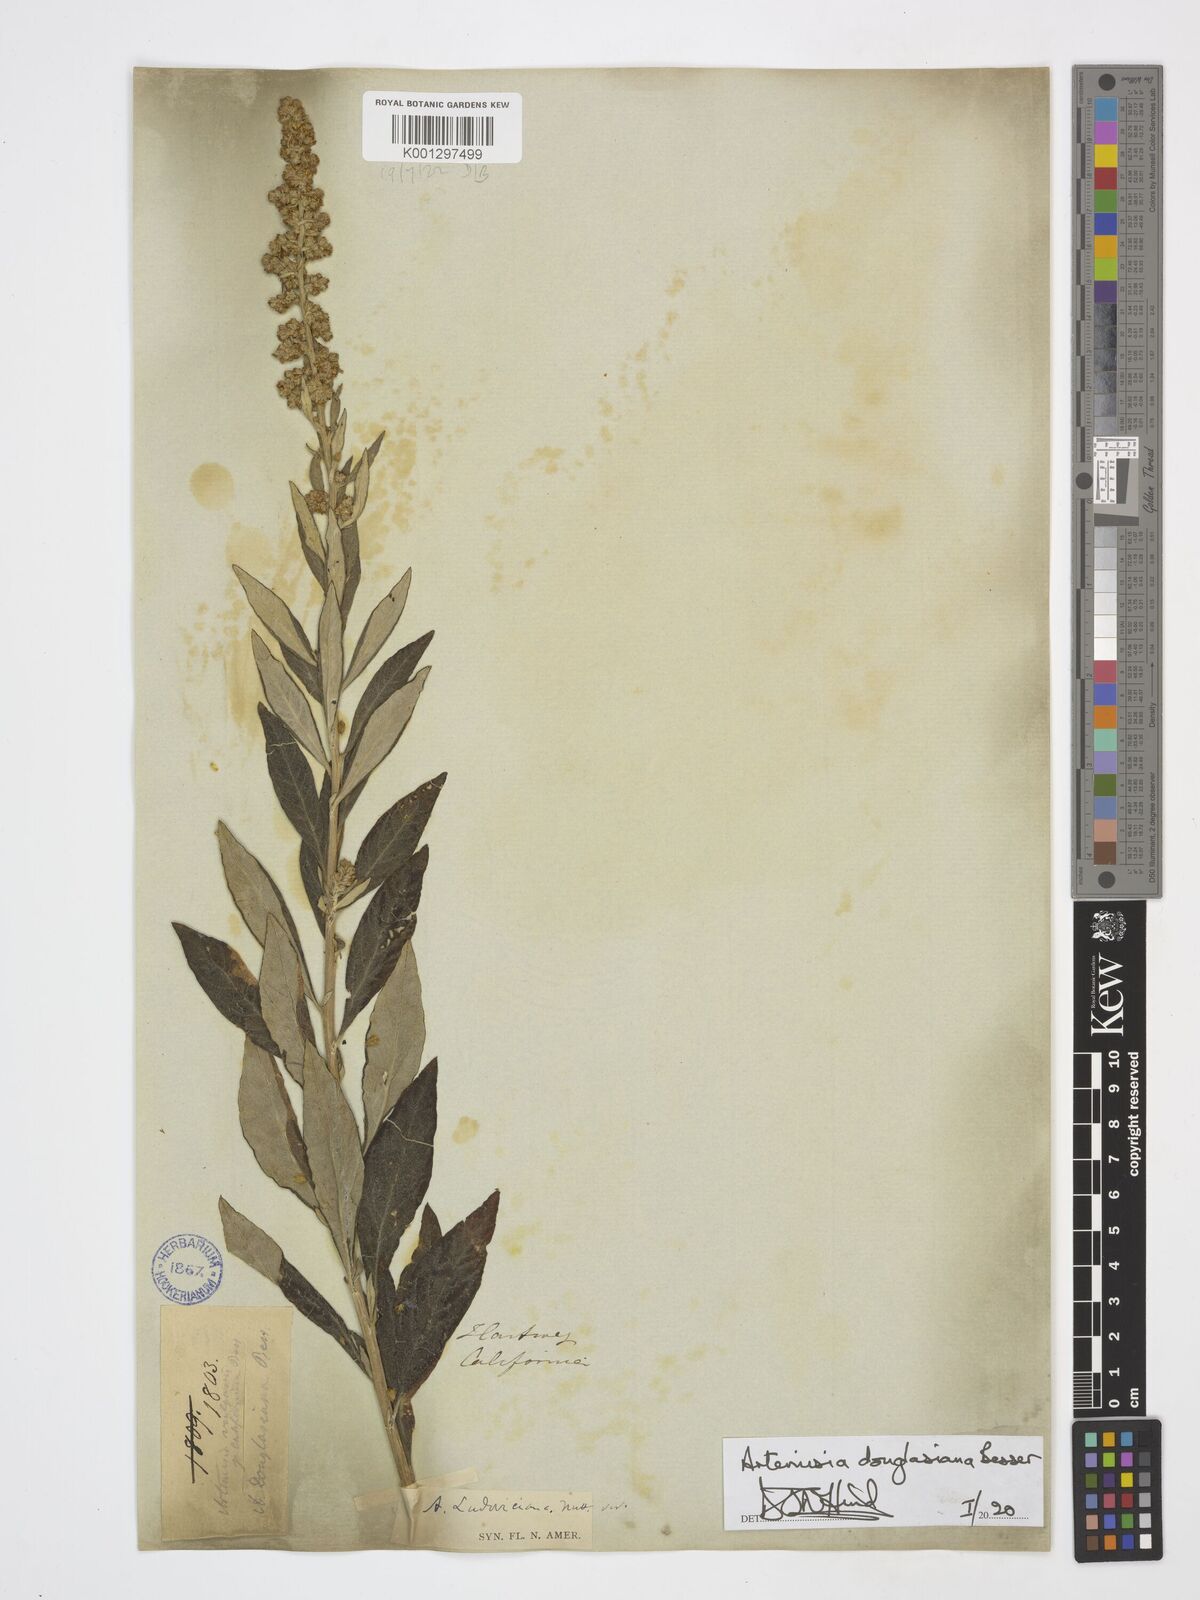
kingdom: Plantae
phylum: Tracheophyta
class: Magnoliopsida
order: Asterales
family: Asteraceae
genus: Artemisia
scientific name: Artemisia douglasiana
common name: Northwest mugwort
